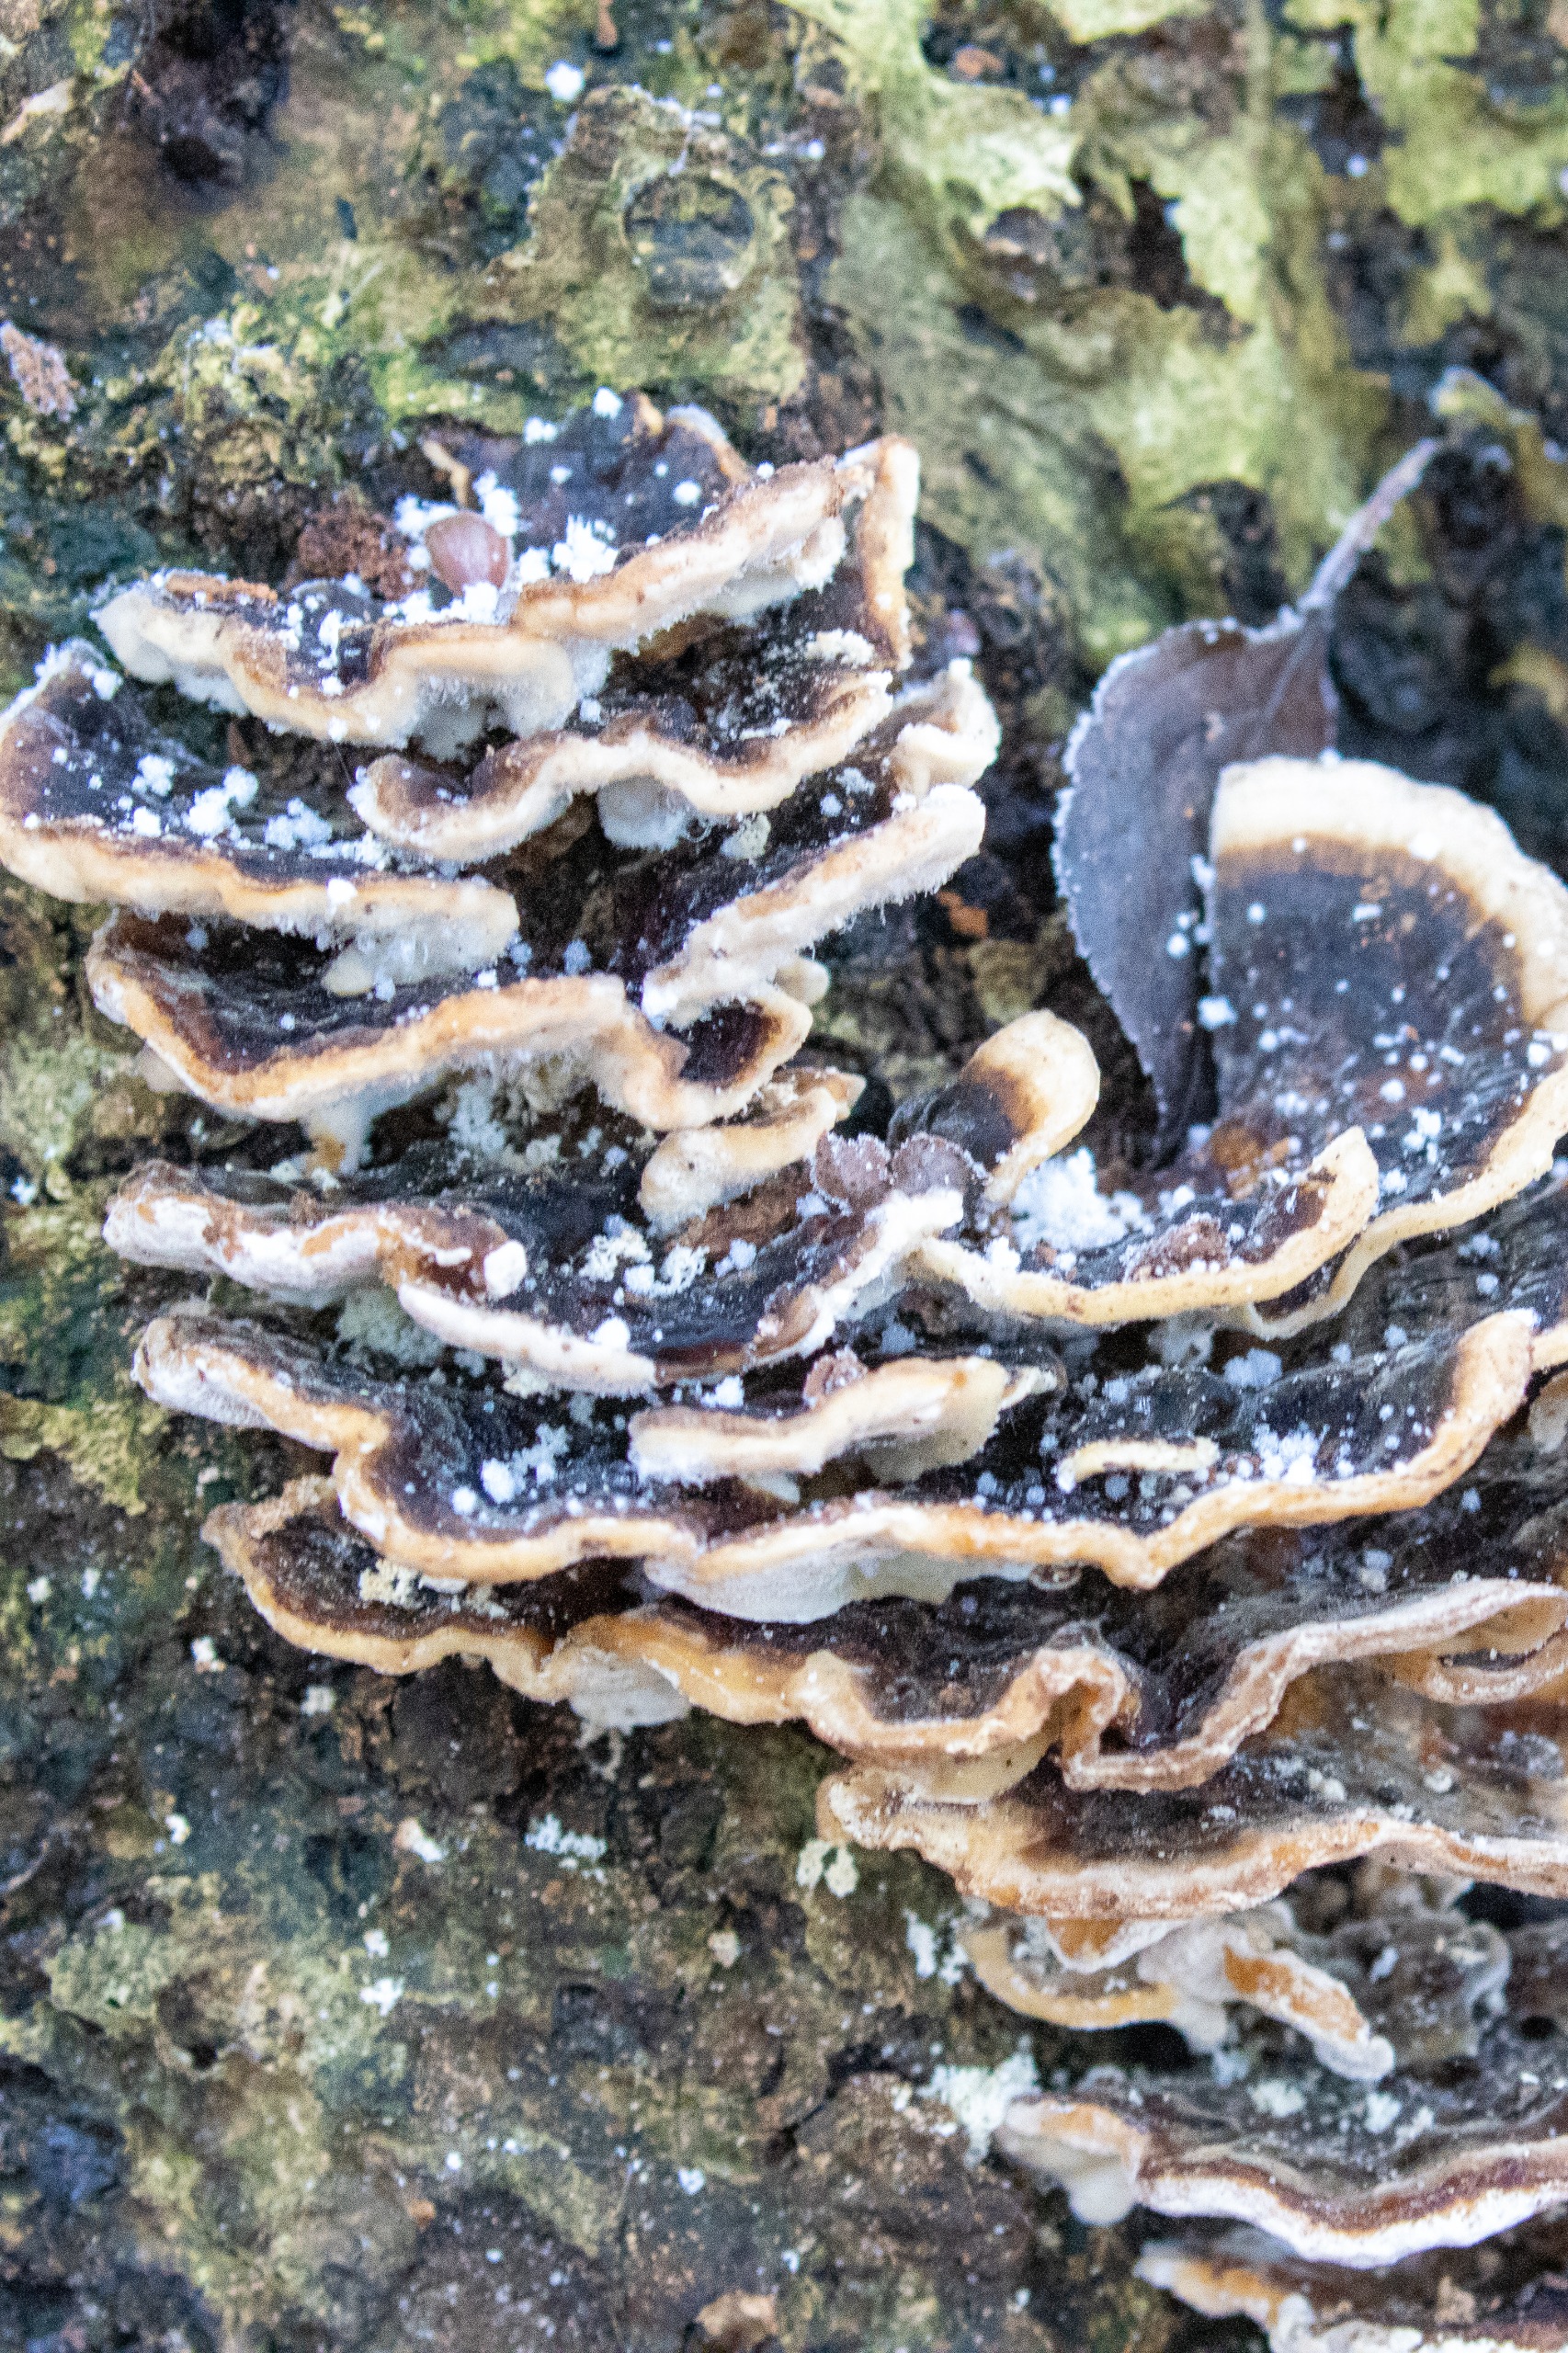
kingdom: Fungi
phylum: Basidiomycota
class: Agaricomycetes
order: Polyporales
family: Polyporaceae
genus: Trametes
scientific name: Trametes versicolor
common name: Broget læderporesvamp
